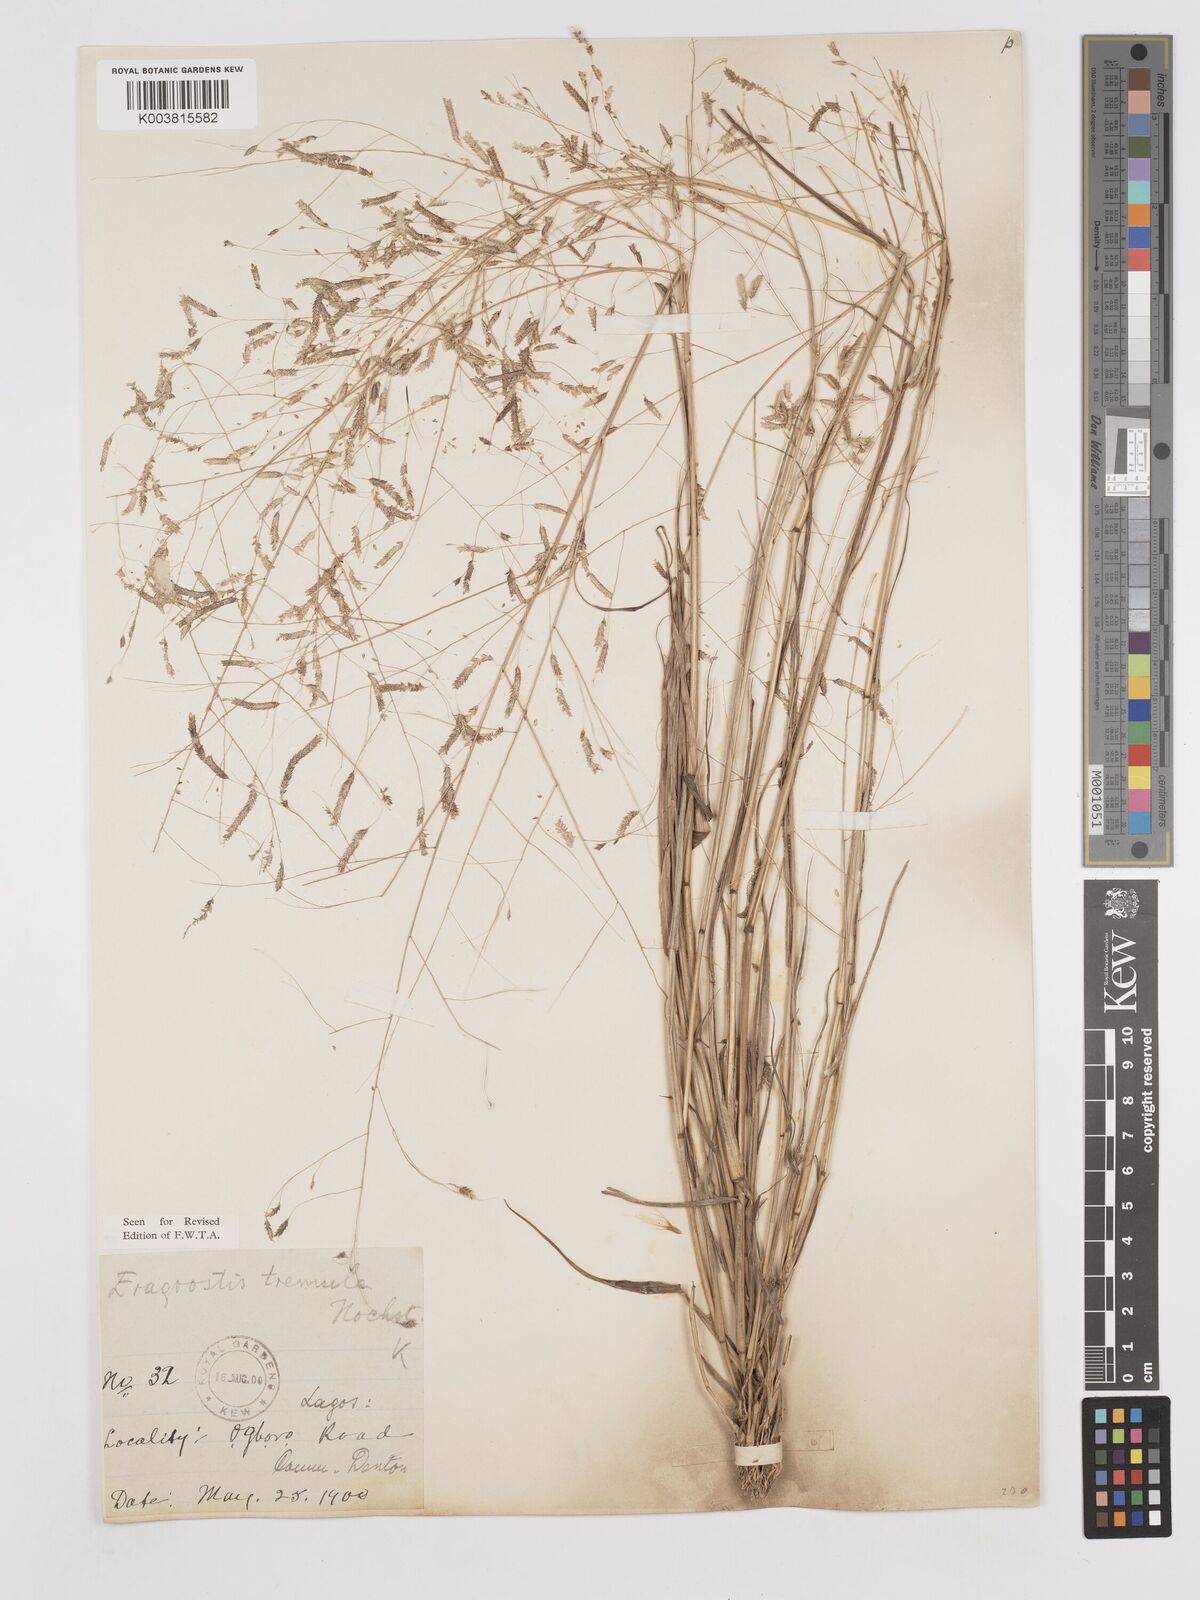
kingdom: Plantae
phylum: Tracheophyta
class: Liliopsida
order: Poales
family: Poaceae
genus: Eragrostis
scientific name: Eragrostis tremula
